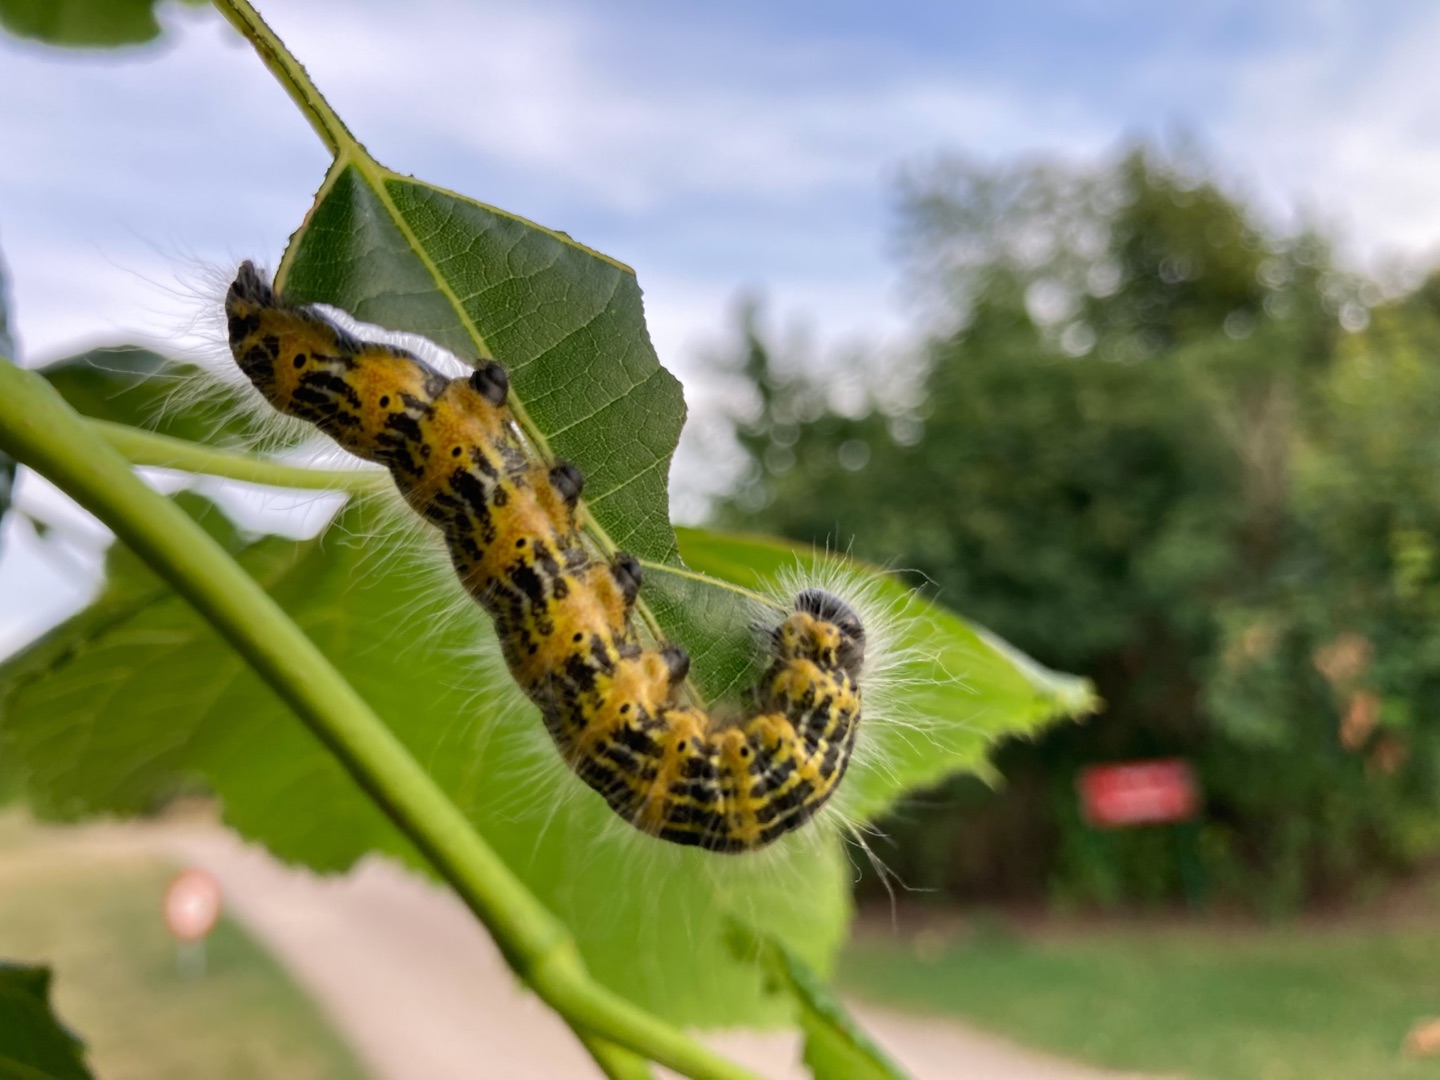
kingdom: Animalia
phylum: Arthropoda
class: Insecta
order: Lepidoptera
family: Notodontidae
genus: Phalera
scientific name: Phalera bucephala
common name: Måneplet
